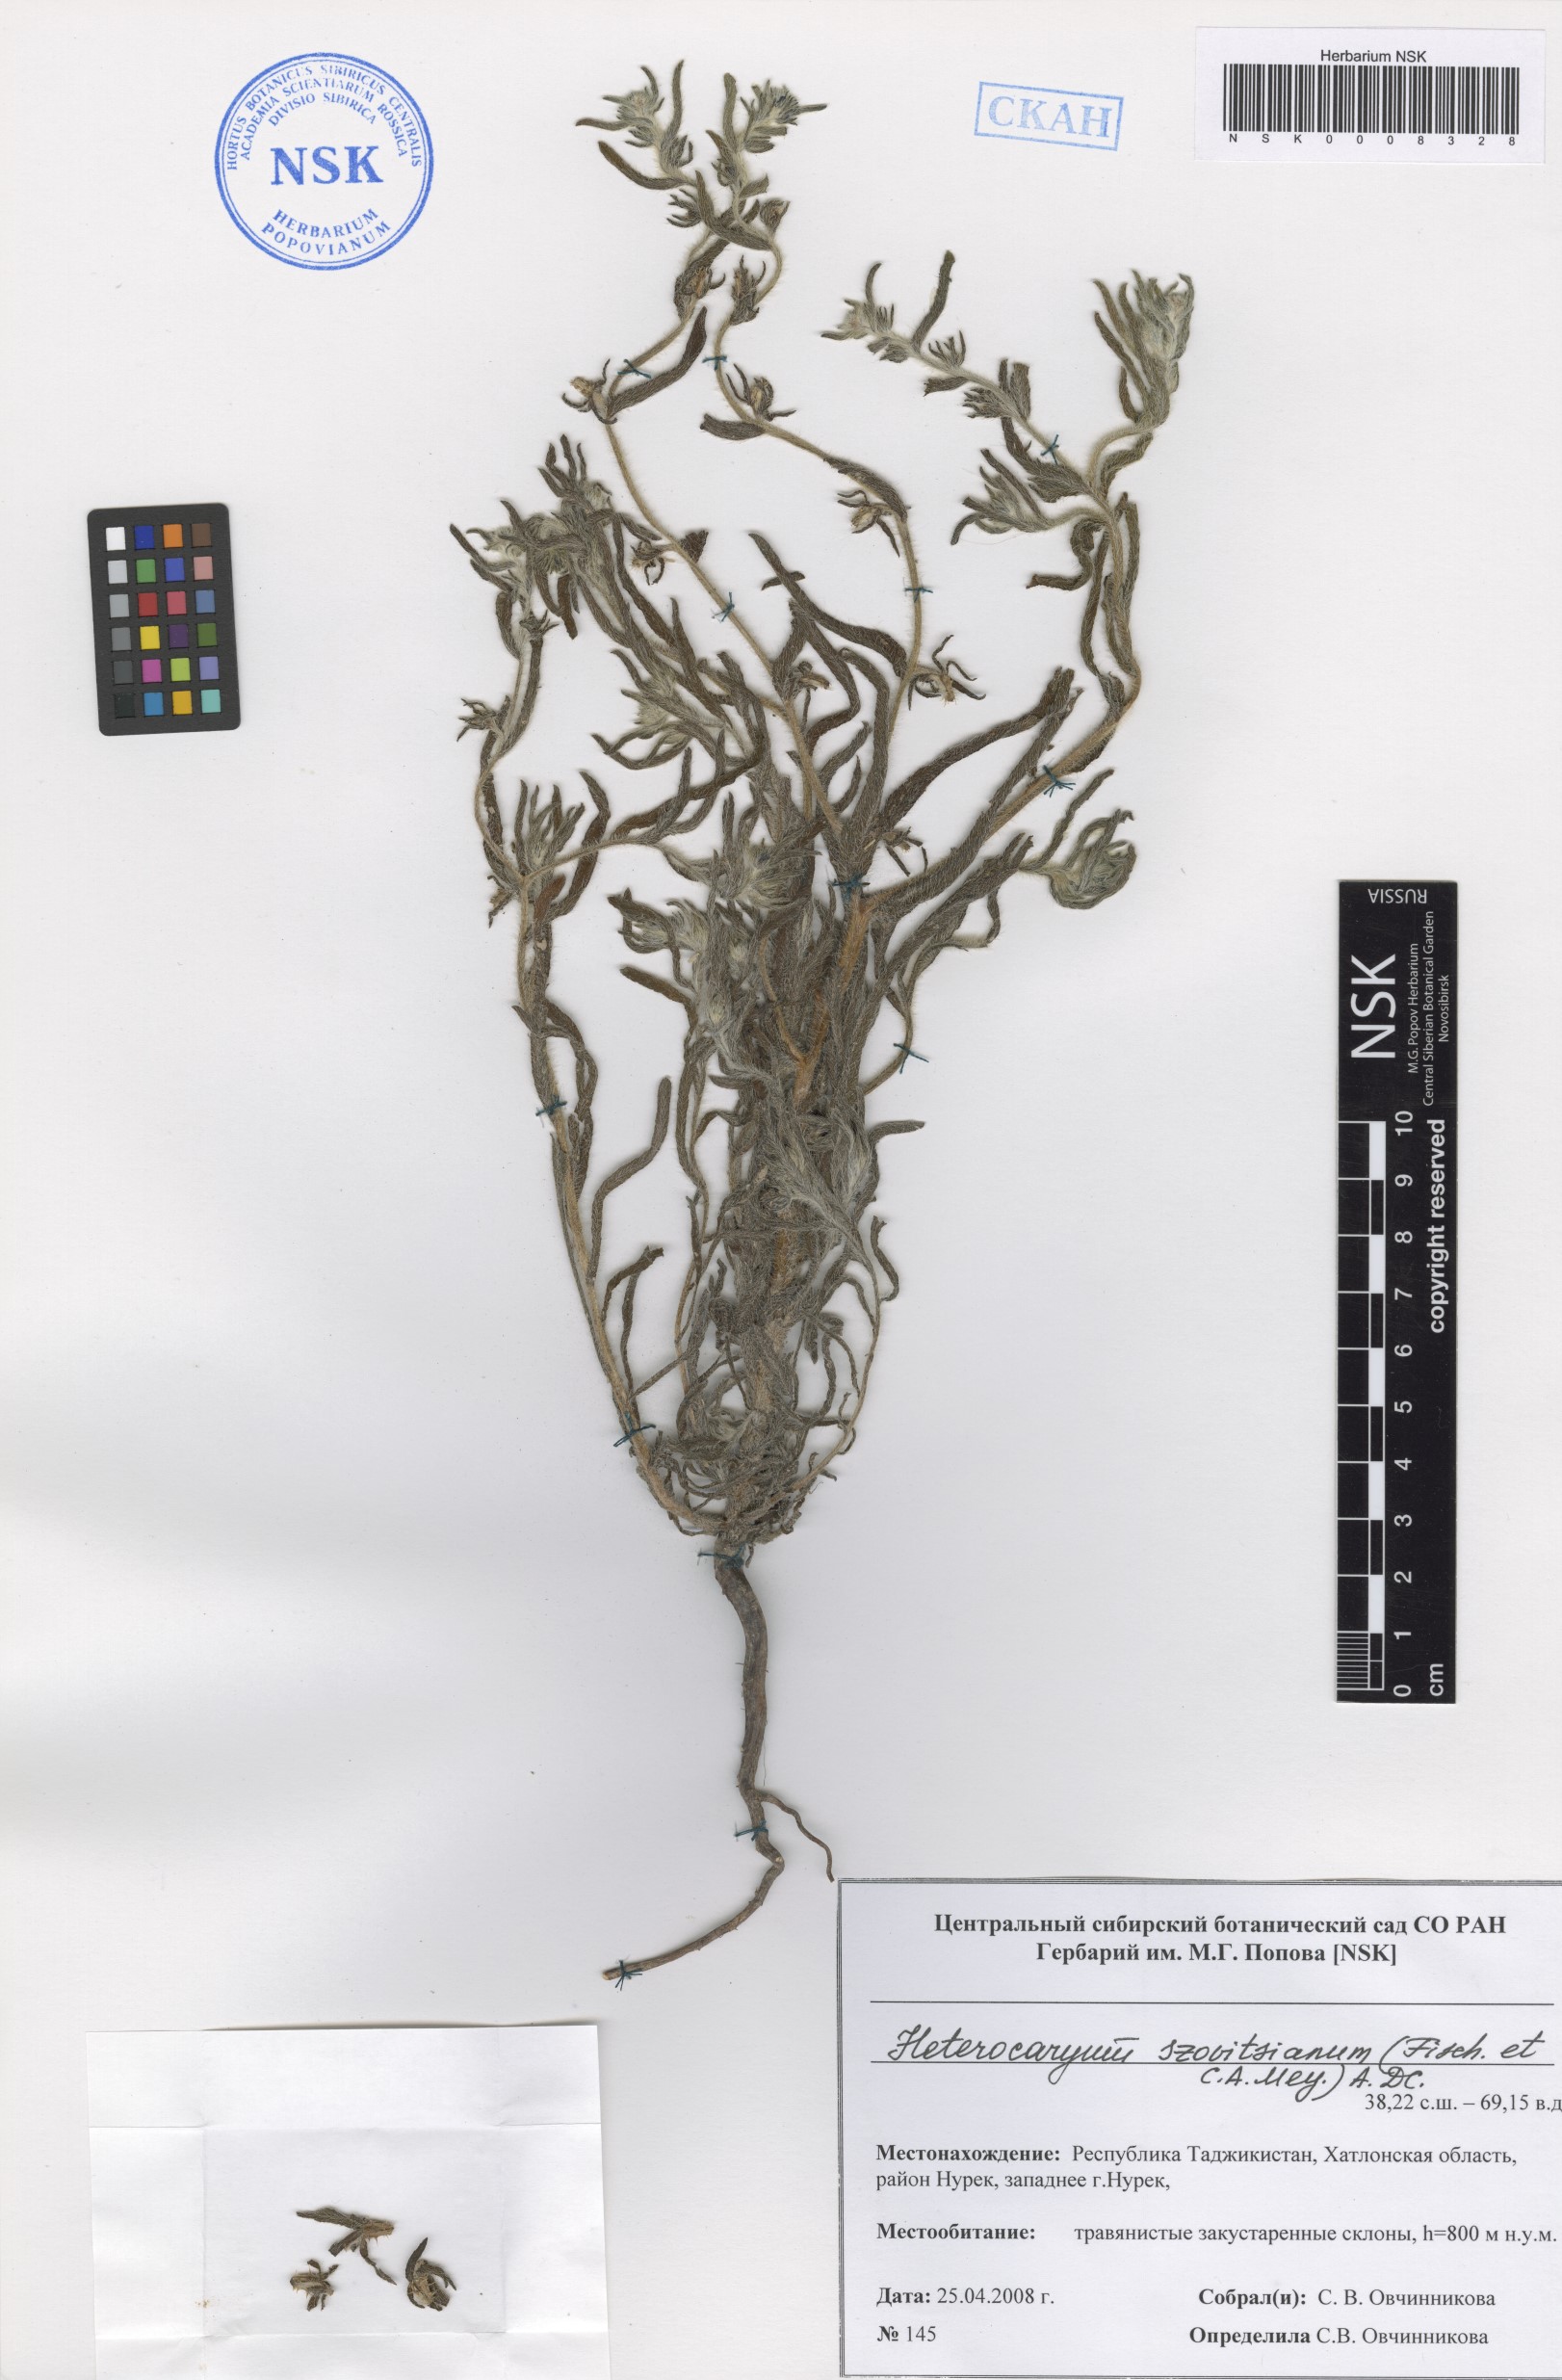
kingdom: Plantae
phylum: Tracheophyta
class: Magnoliopsida
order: Boraginales
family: Boraginaceae
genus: Pseudoheterocaryum
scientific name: Pseudoheterocaryum szovitsianum
